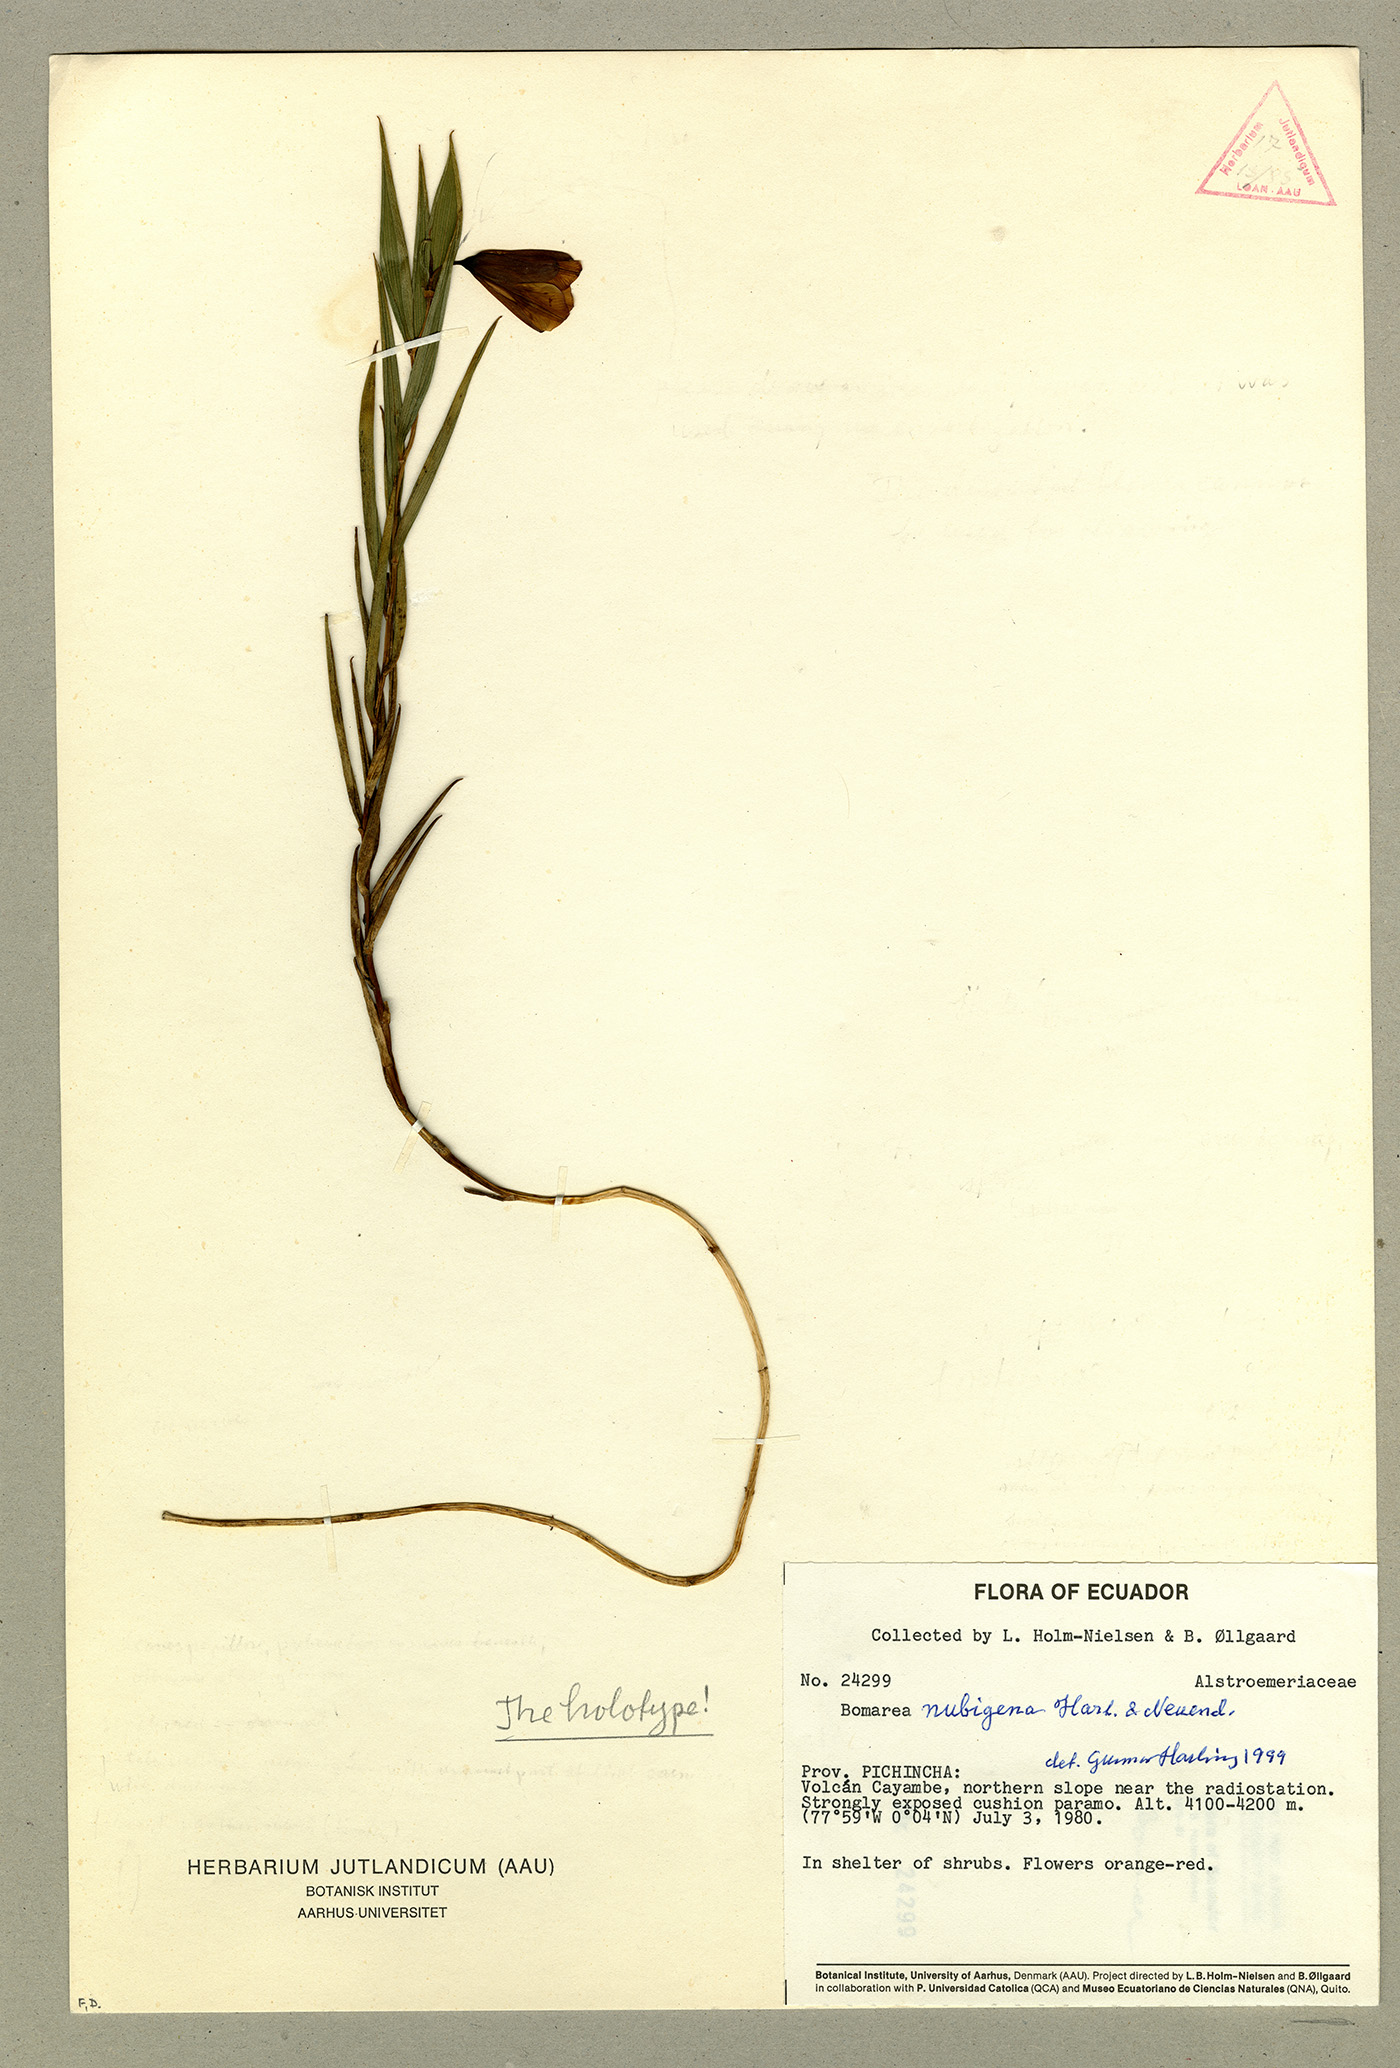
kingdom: Plantae
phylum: Tracheophyta
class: Liliopsida
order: Liliales
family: Alstroemeriaceae
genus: Bomarea
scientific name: Bomarea nubigena
